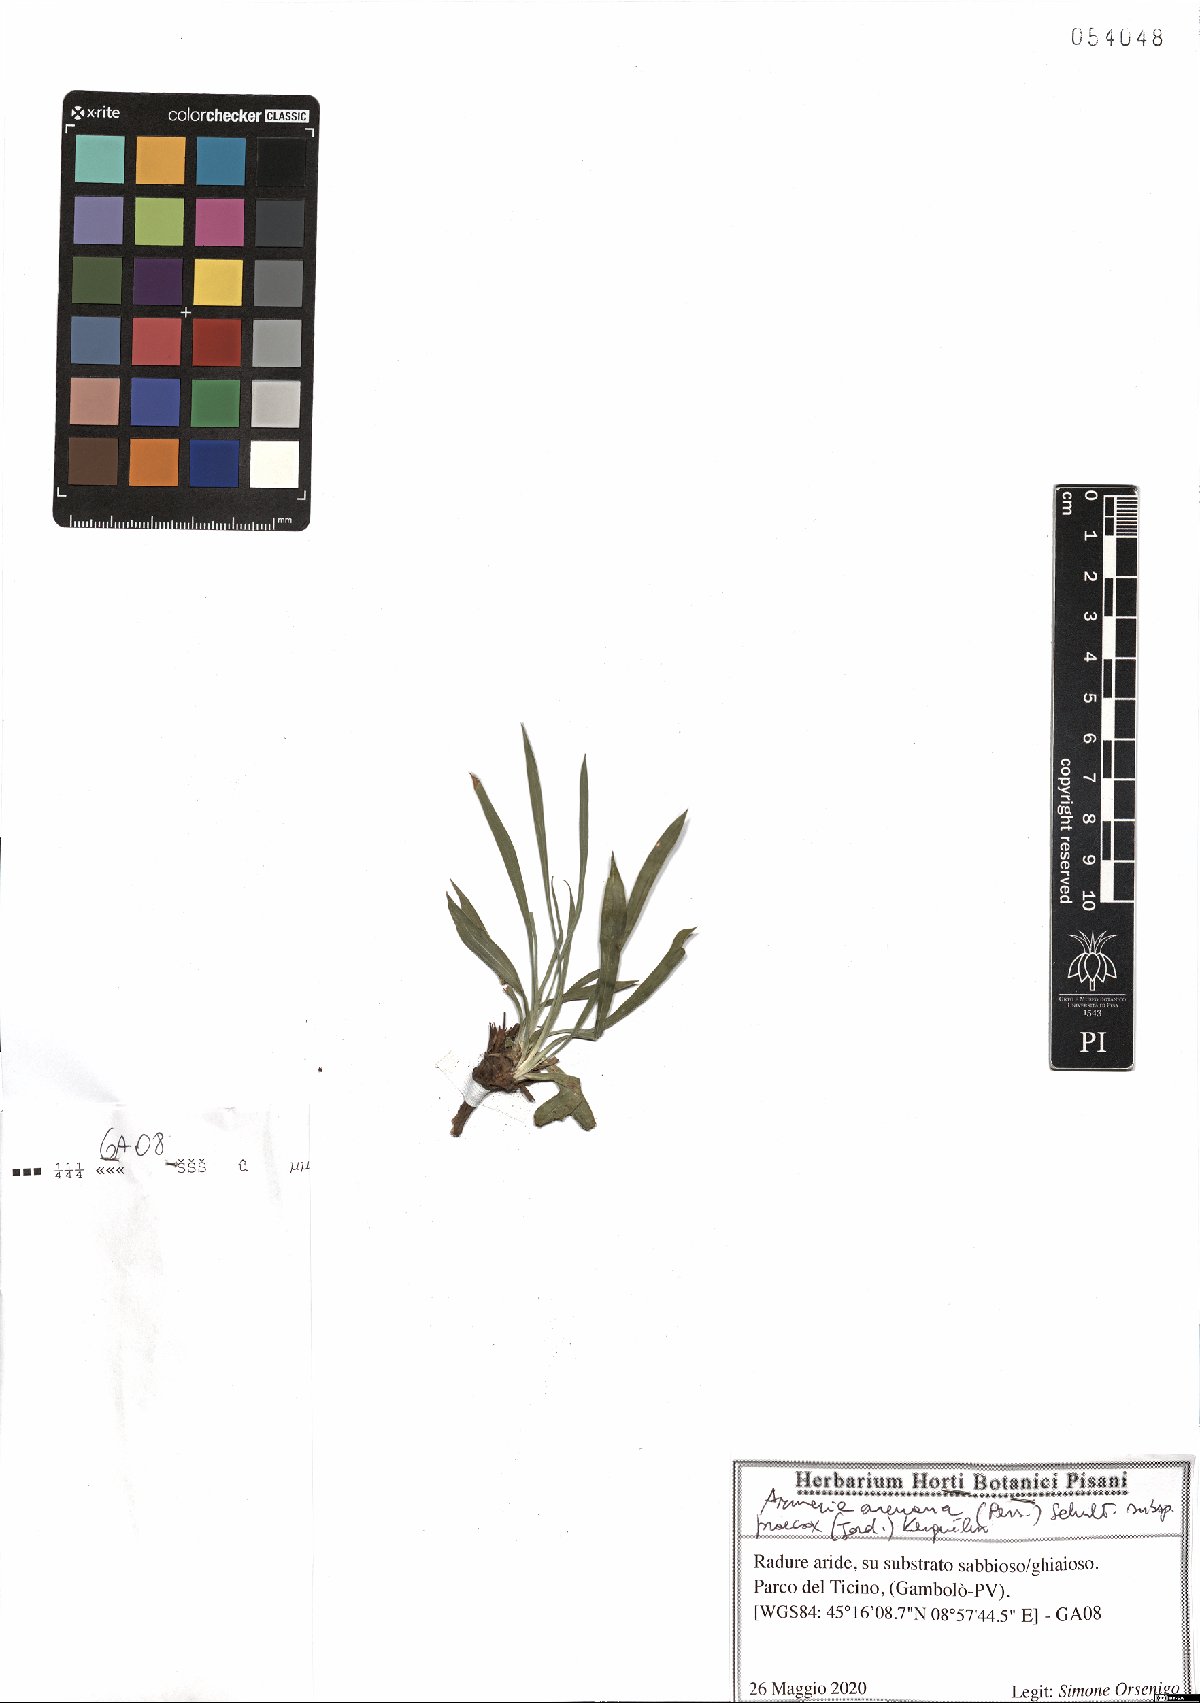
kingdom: Plantae
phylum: Tracheophyta
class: Magnoliopsida
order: Caryophyllales
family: Plumbaginaceae
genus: Armeria
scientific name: Armeria arenaria
